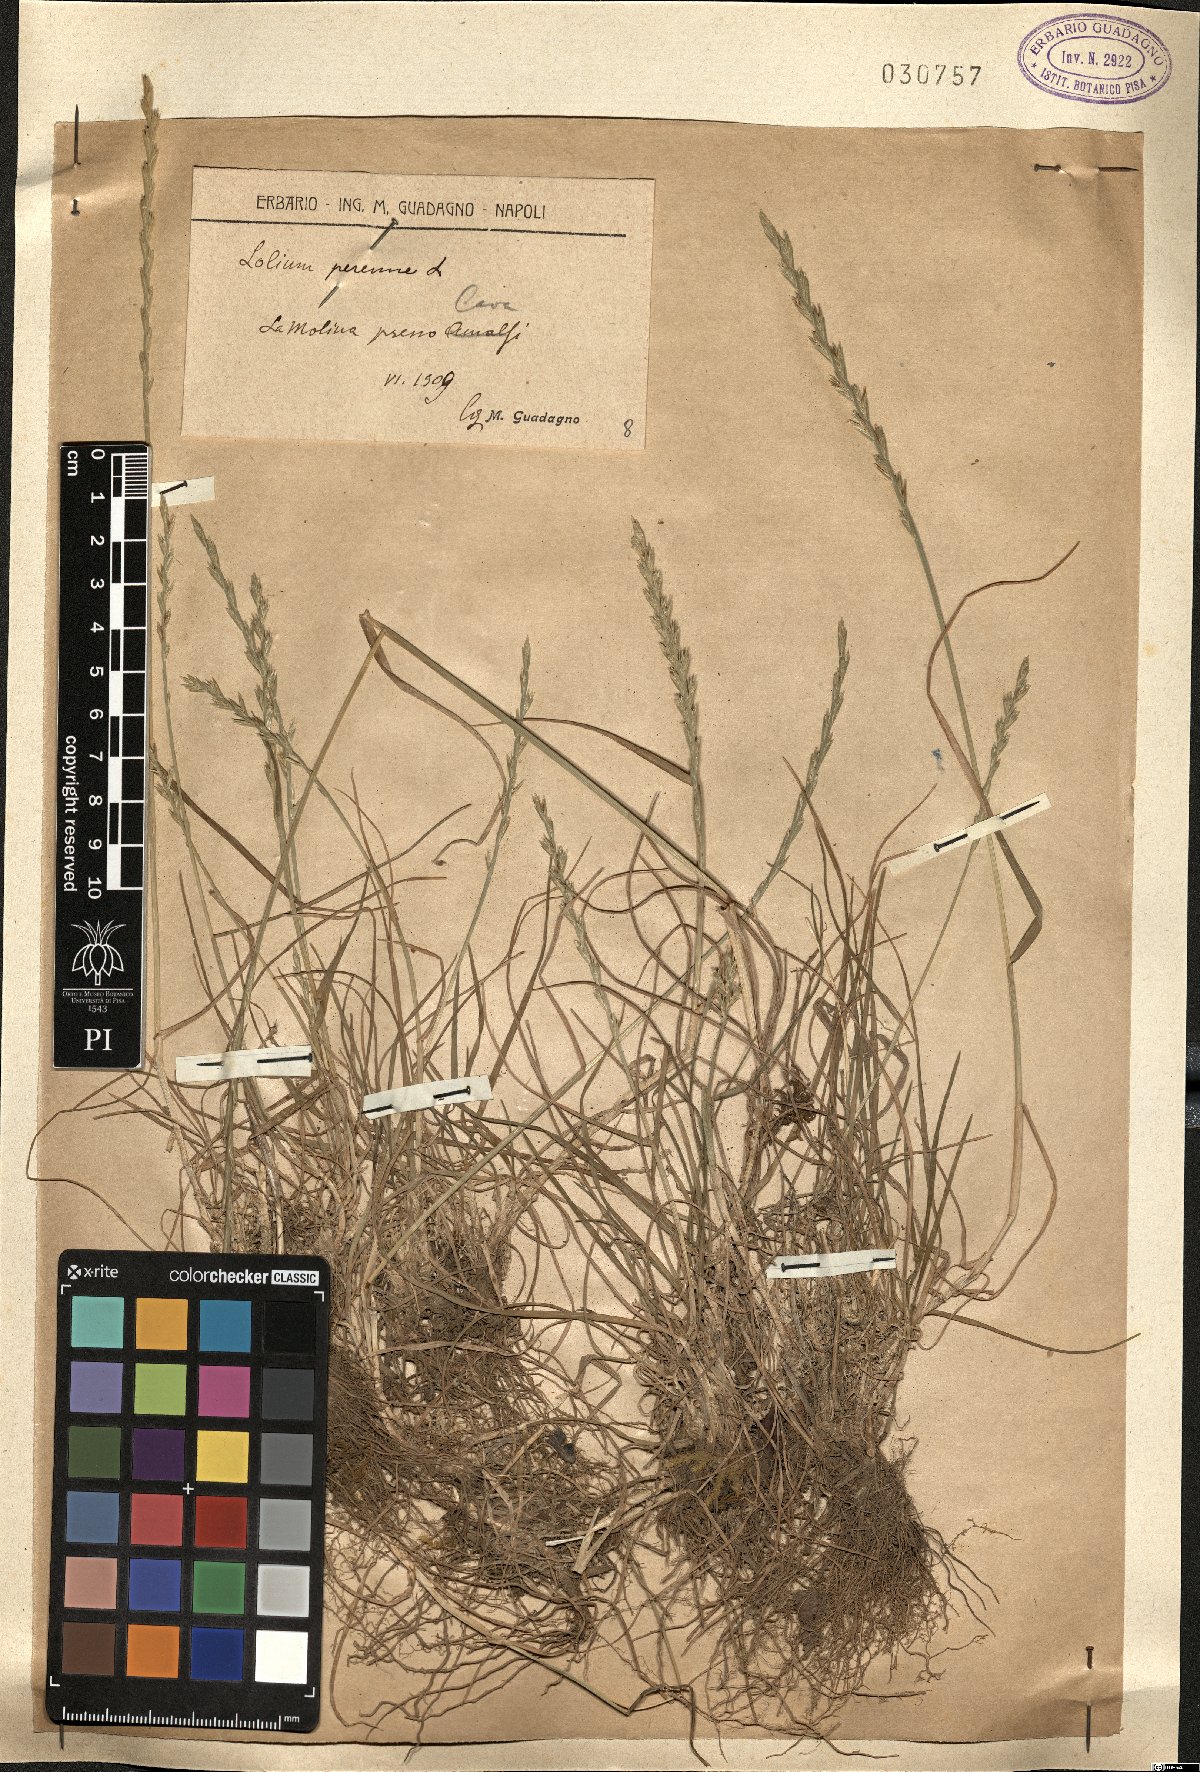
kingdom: Plantae
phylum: Tracheophyta
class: Liliopsida
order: Poales
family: Poaceae
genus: Lolium
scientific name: Lolium perenne
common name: Perennial ryegrass
